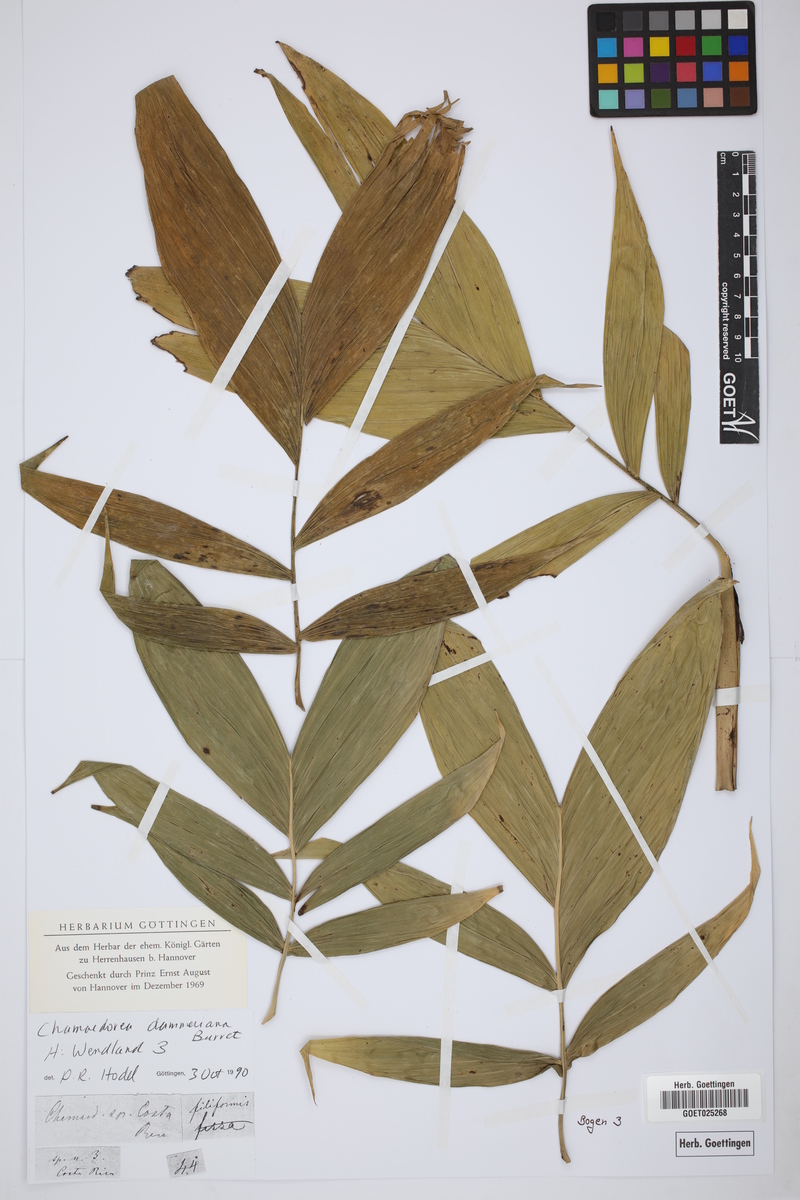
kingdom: Plantae
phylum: Tracheophyta
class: Liliopsida
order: Arecales
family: Arecaceae
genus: Chamaedorea
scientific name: Chamaedorea dammeriana
